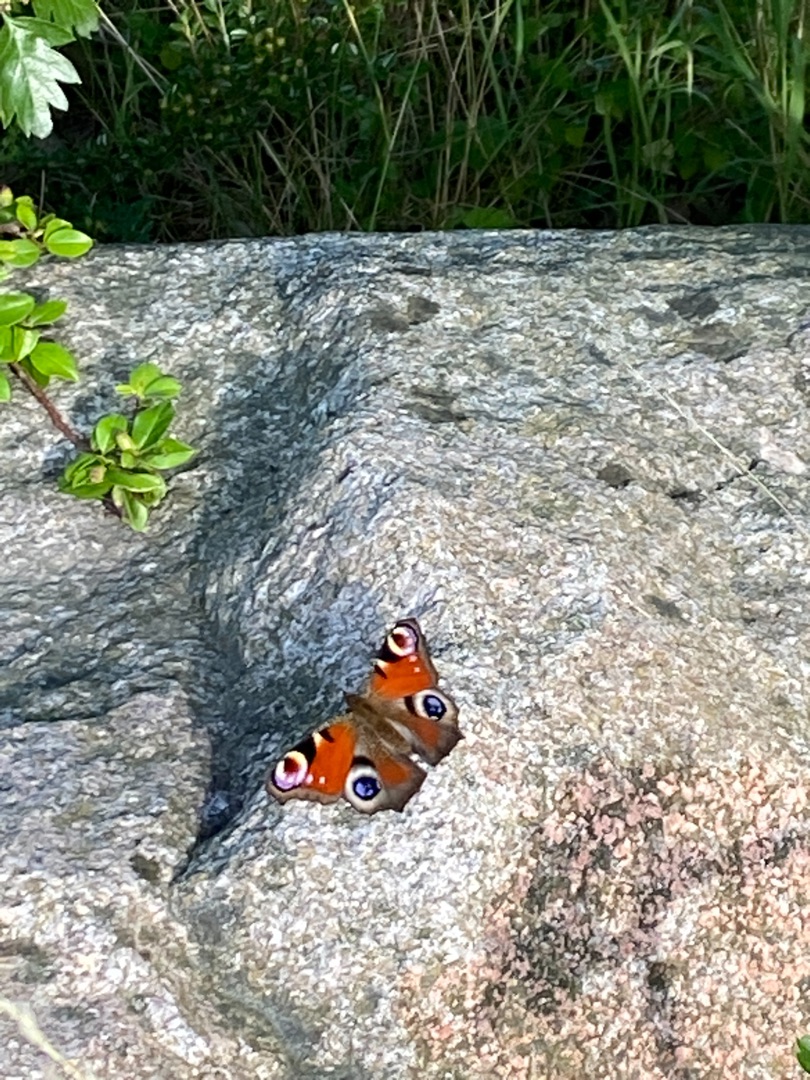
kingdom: Animalia
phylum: Arthropoda
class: Insecta
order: Lepidoptera
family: Nymphalidae
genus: Aglais
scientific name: Aglais io
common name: Dagpåfugleøje
